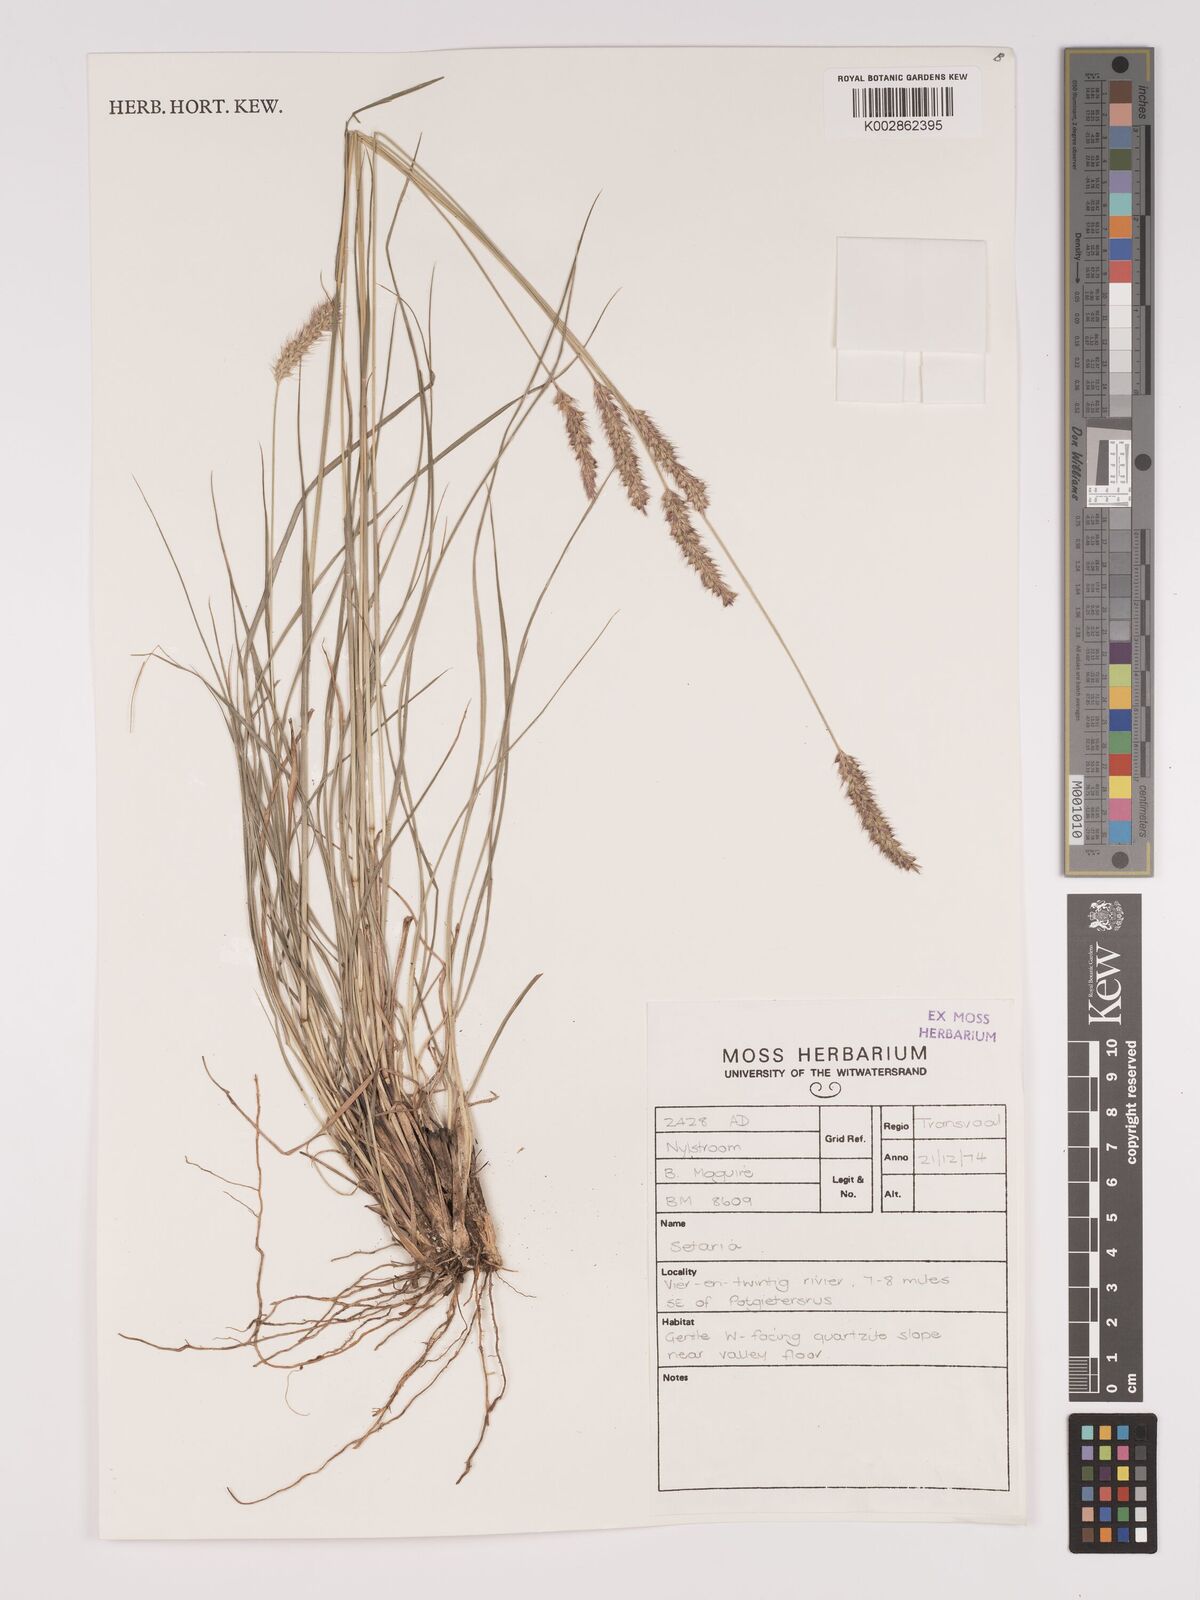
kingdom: Plantae
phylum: Tracheophyta
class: Liliopsida
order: Poales
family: Poaceae
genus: Setaria
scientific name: Setaria sphacelata
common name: African bristlegrass
